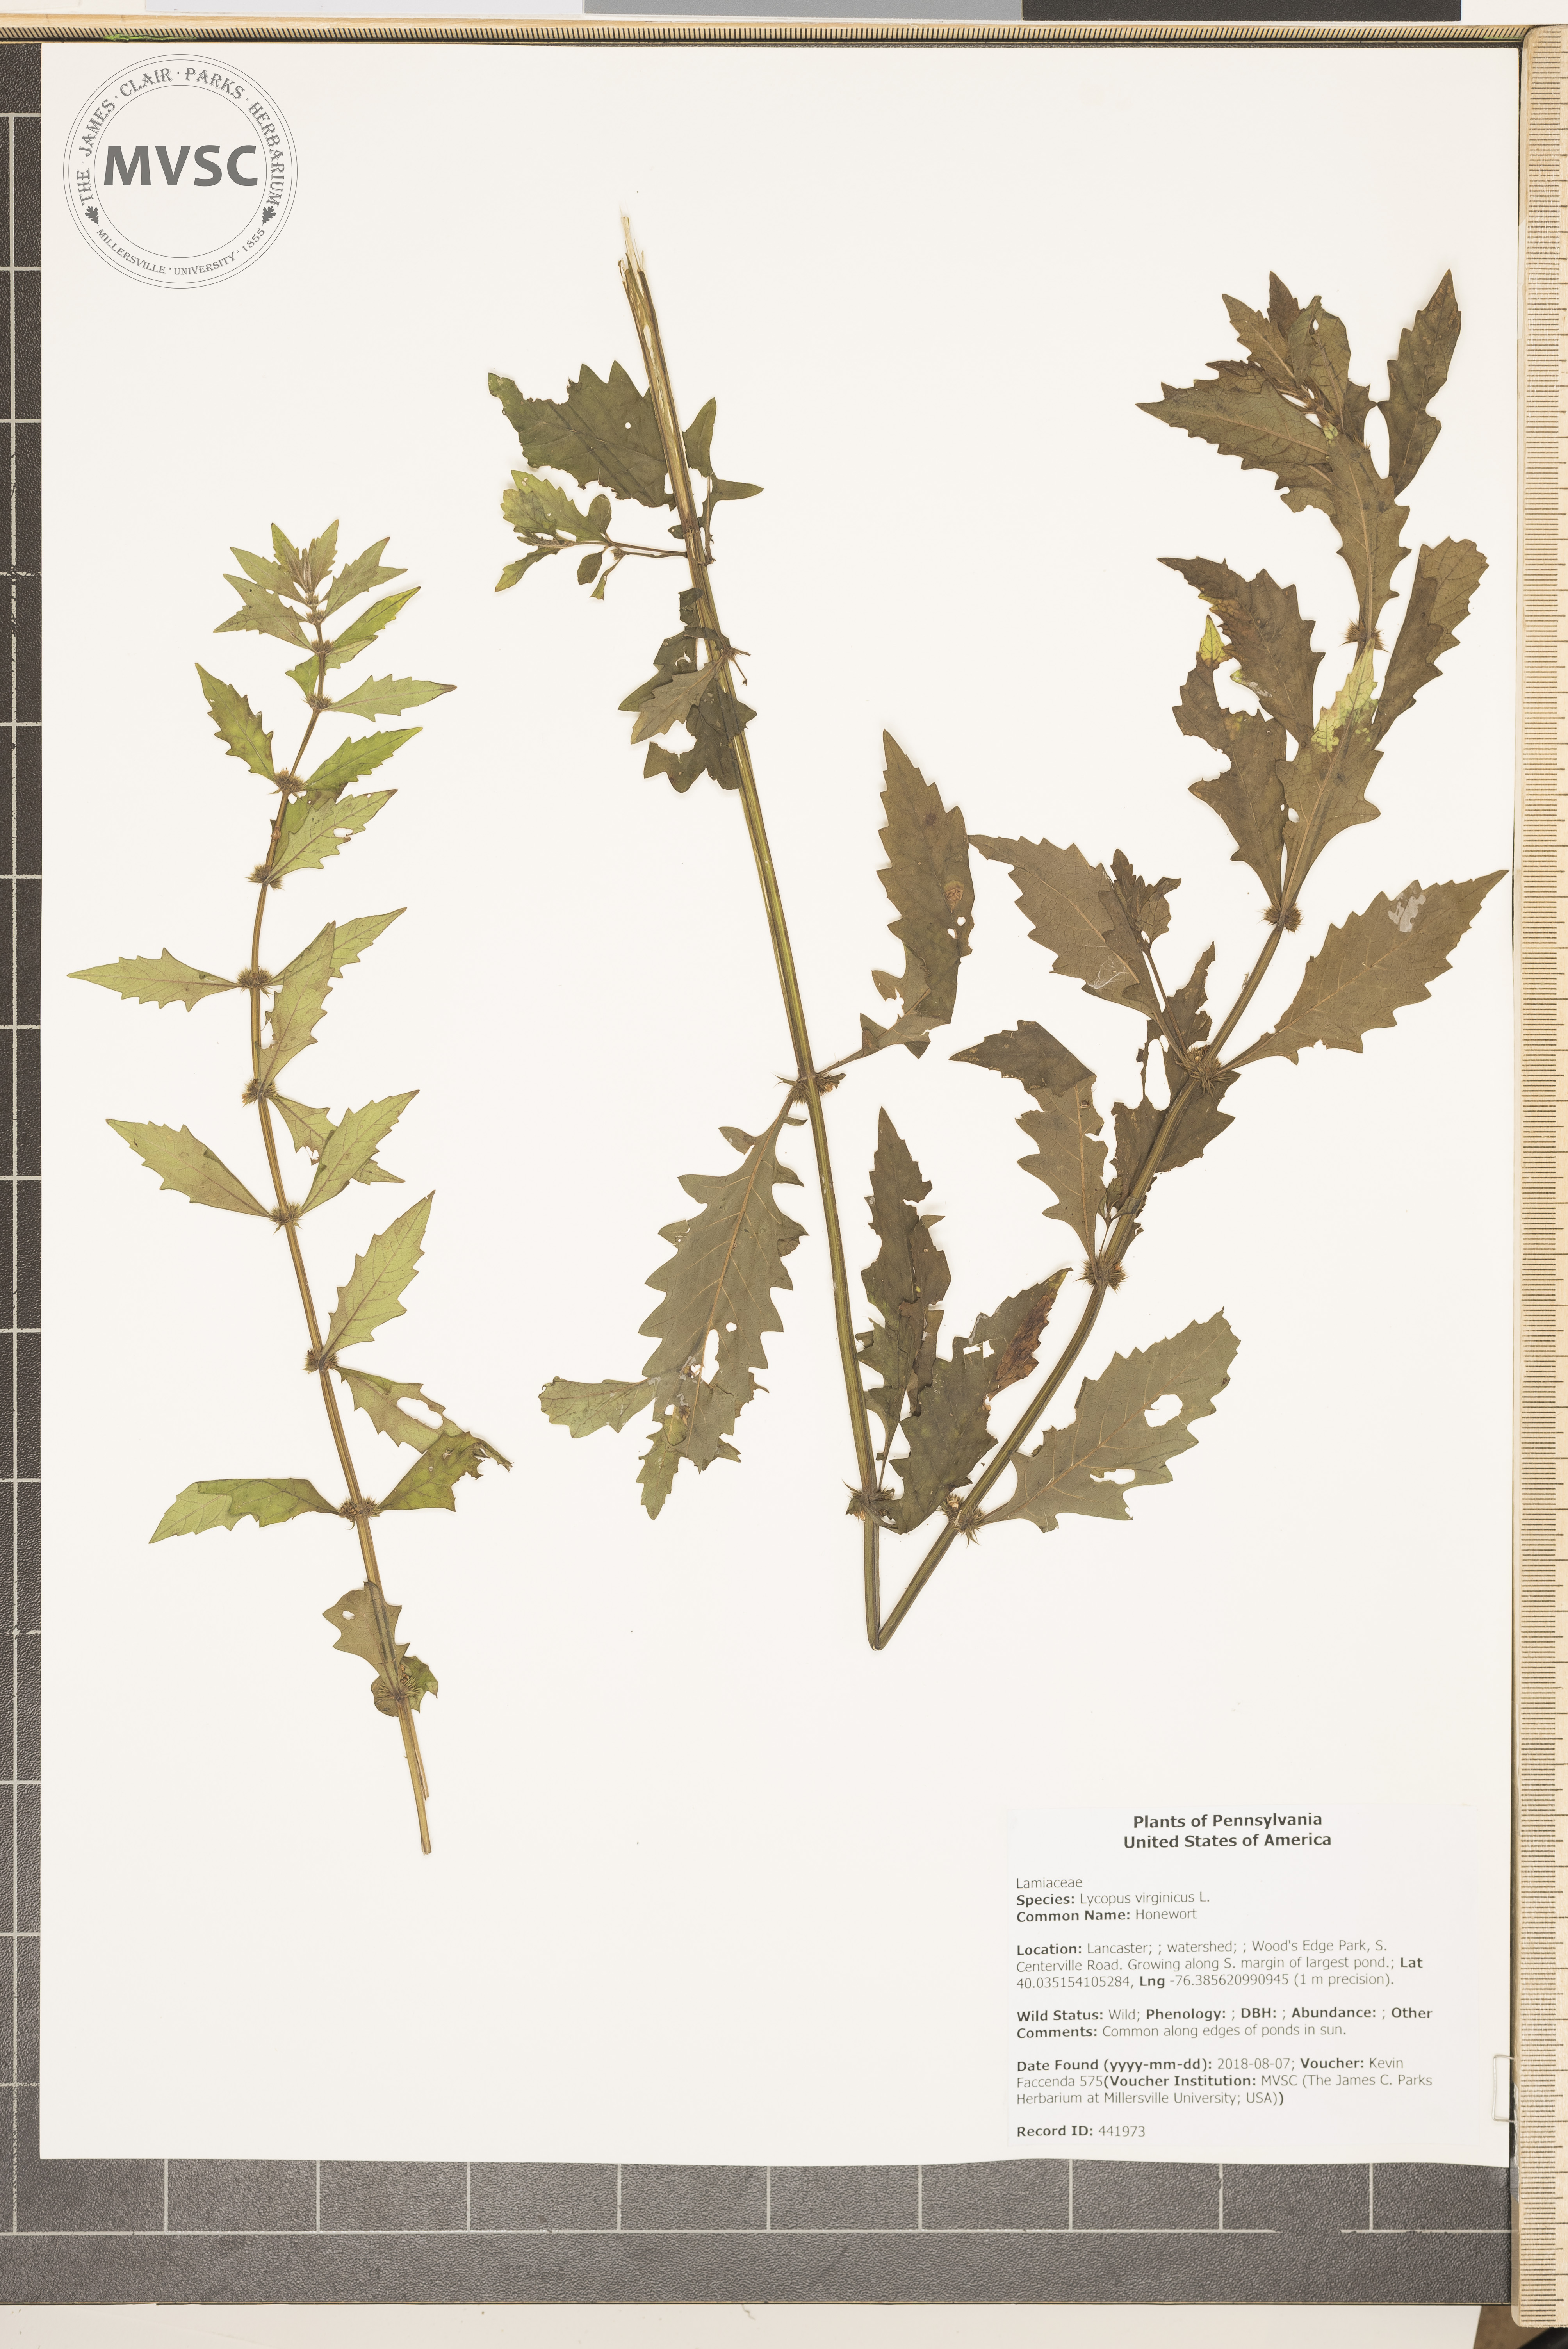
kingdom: Plantae
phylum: Tracheophyta
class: Magnoliopsida
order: Lamiales
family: Lamiaceae
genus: Lycopus
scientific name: Lycopus virginicus
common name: Honewort
